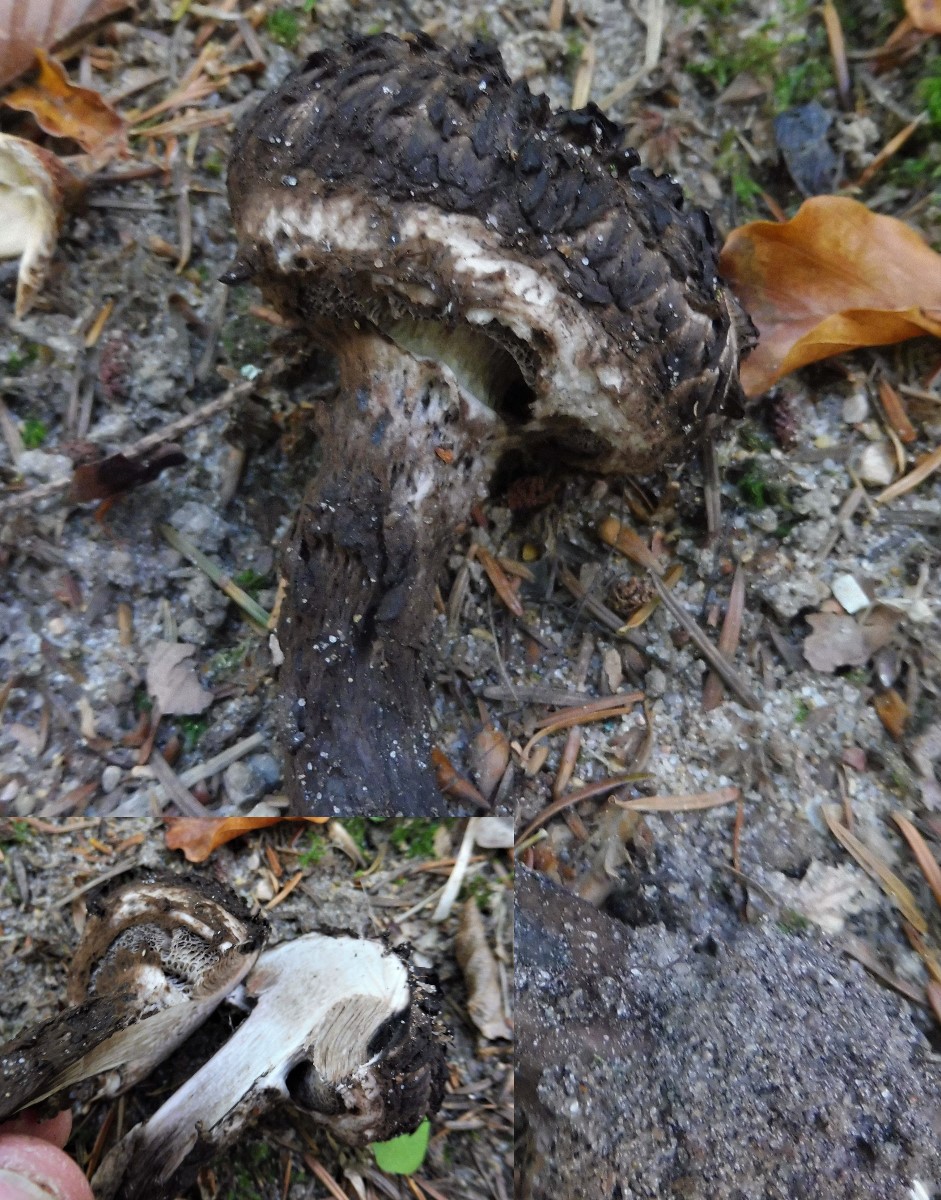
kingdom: Fungi
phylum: Basidiomycota
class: Agaricomycetes
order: Boletales
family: Boletaceae
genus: Strobilomyces
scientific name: Strobilomyces strobilaceus
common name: koglerørhat
